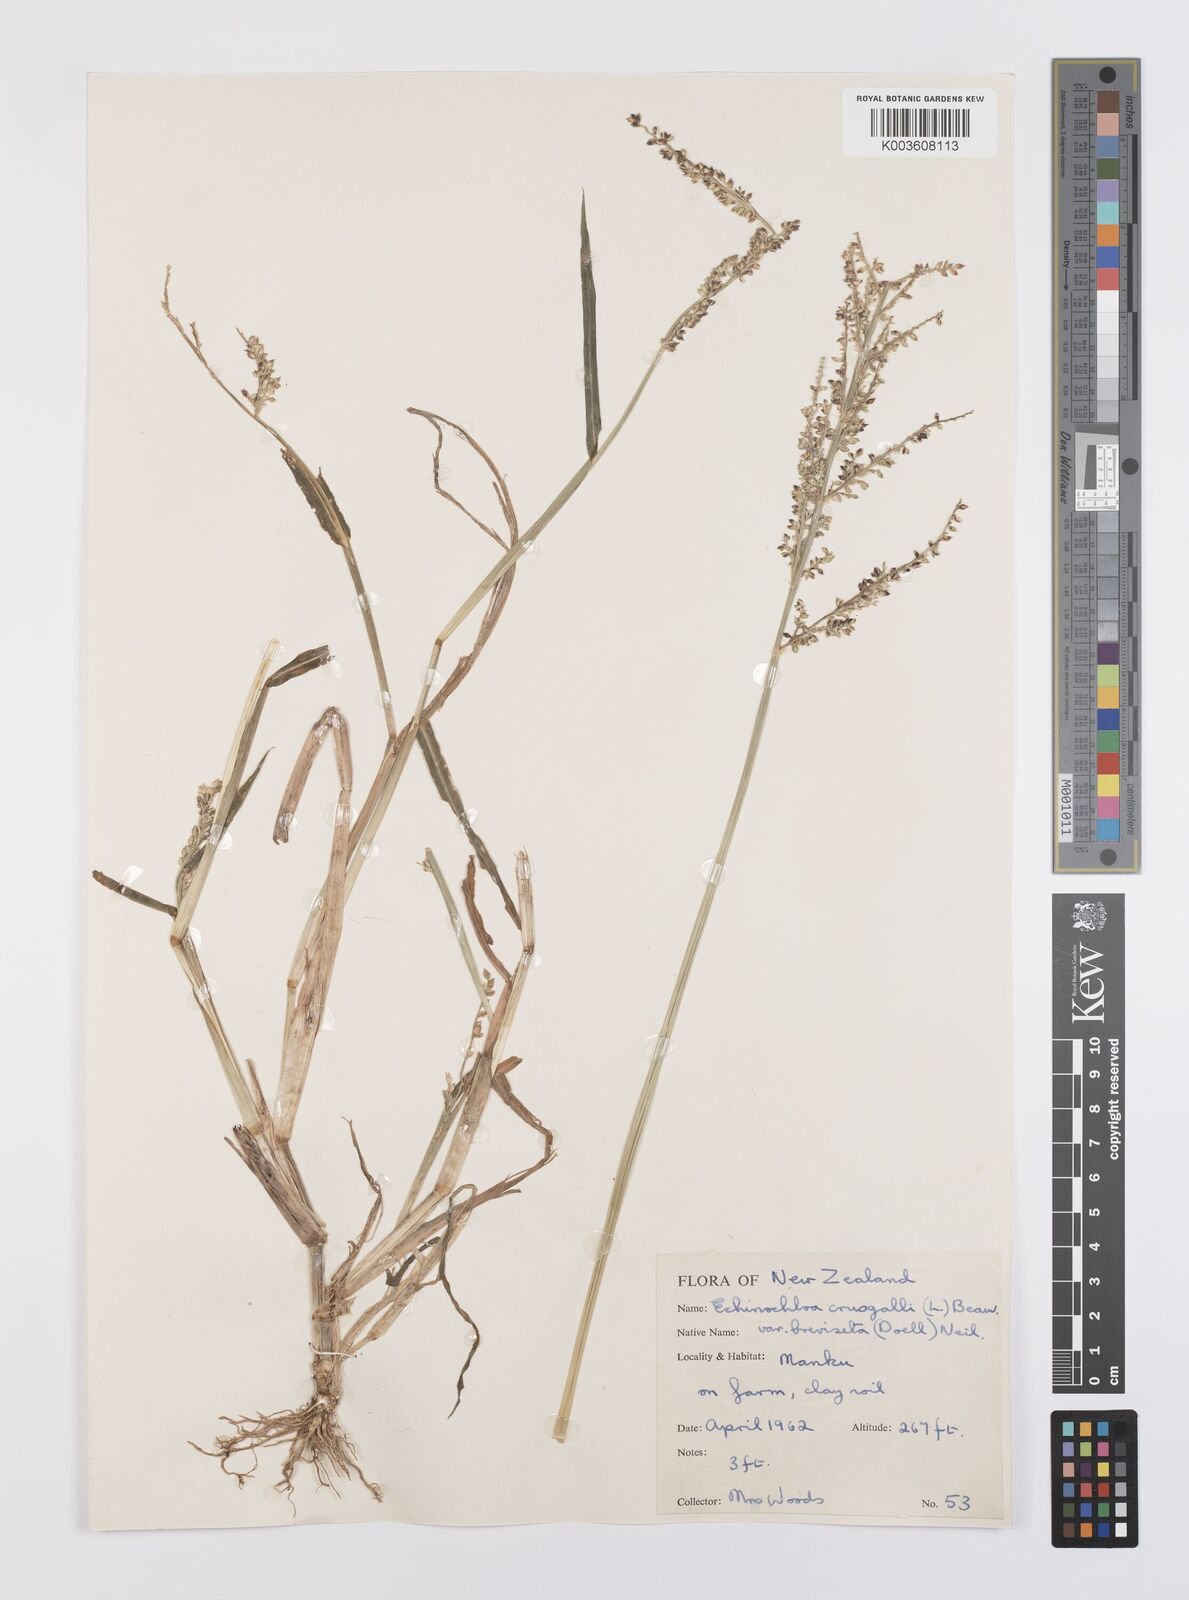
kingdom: Plantae
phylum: Tracheophyta
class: Liliopsida
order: Poales
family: Poaceae
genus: Echinochloa
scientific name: Echinochloa crus-galli
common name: Cockspur
